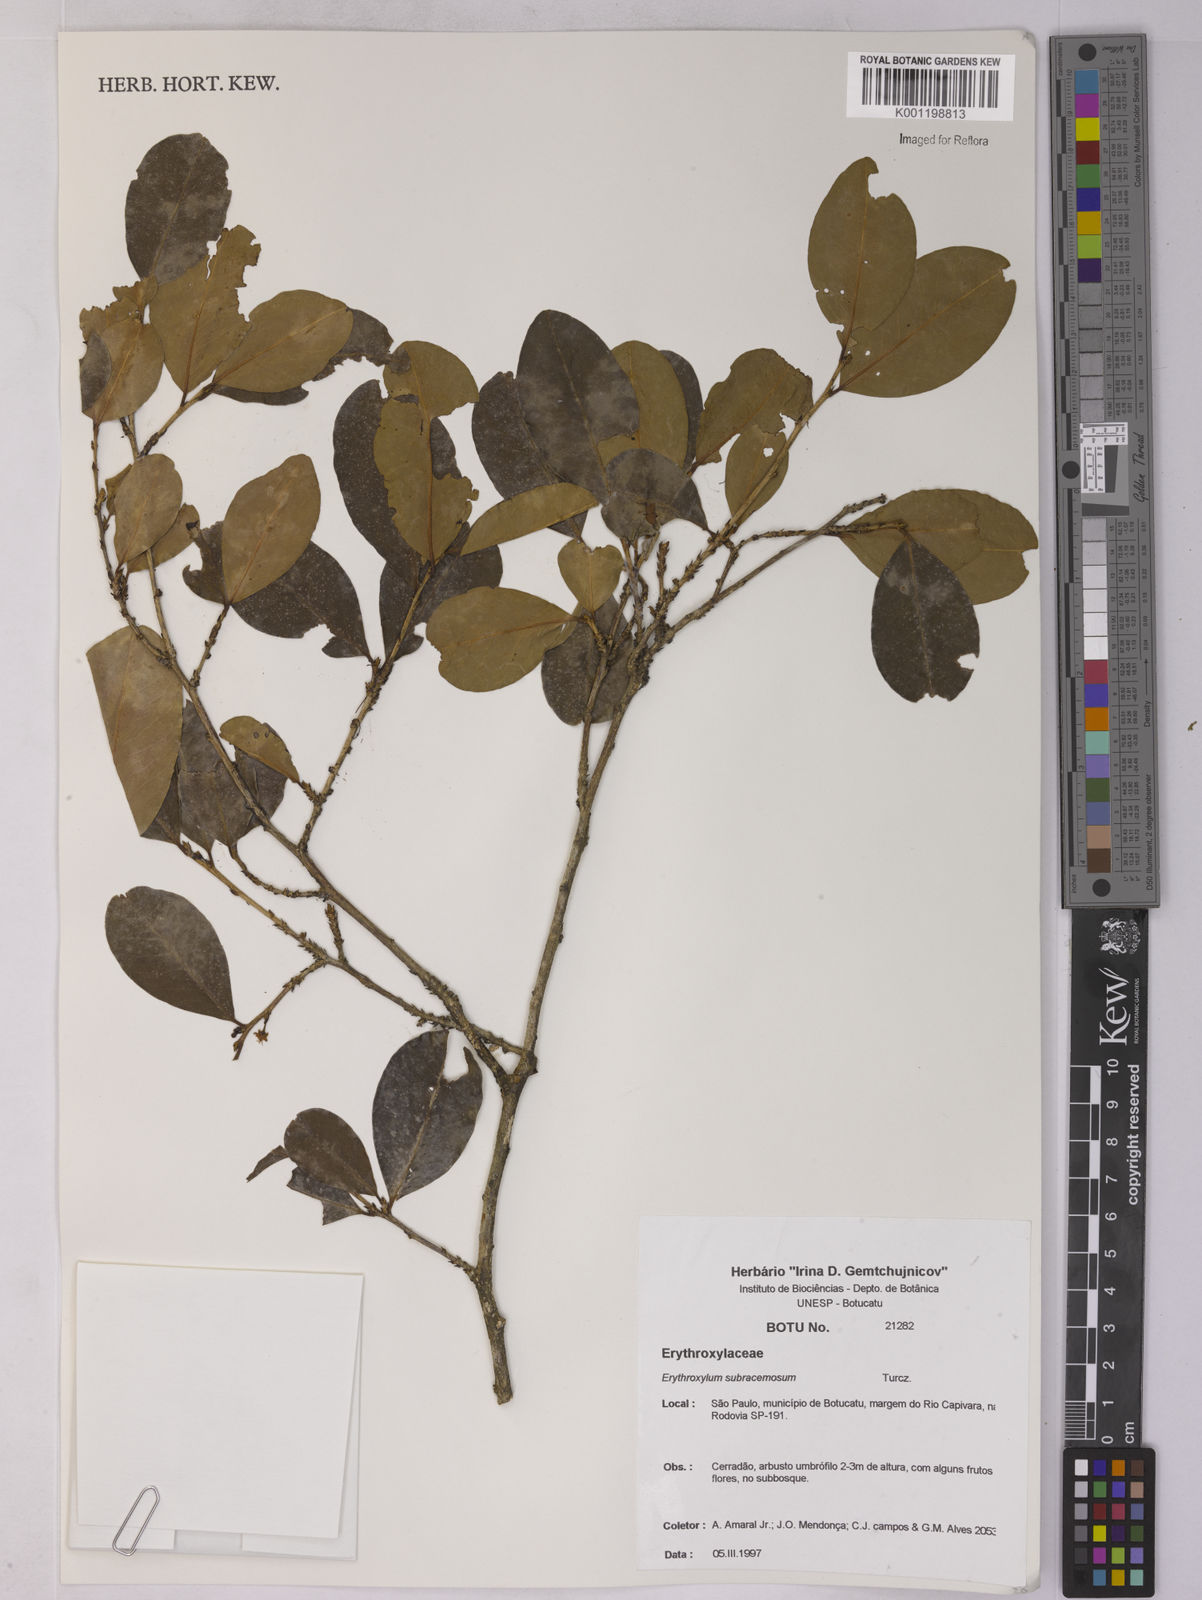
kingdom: Plantae
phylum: Tracheophyta
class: Magnoliopsida
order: Malpighiales
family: Erythroxylaceae
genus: Erythroxylum
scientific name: Erythroxylum subracemosum
